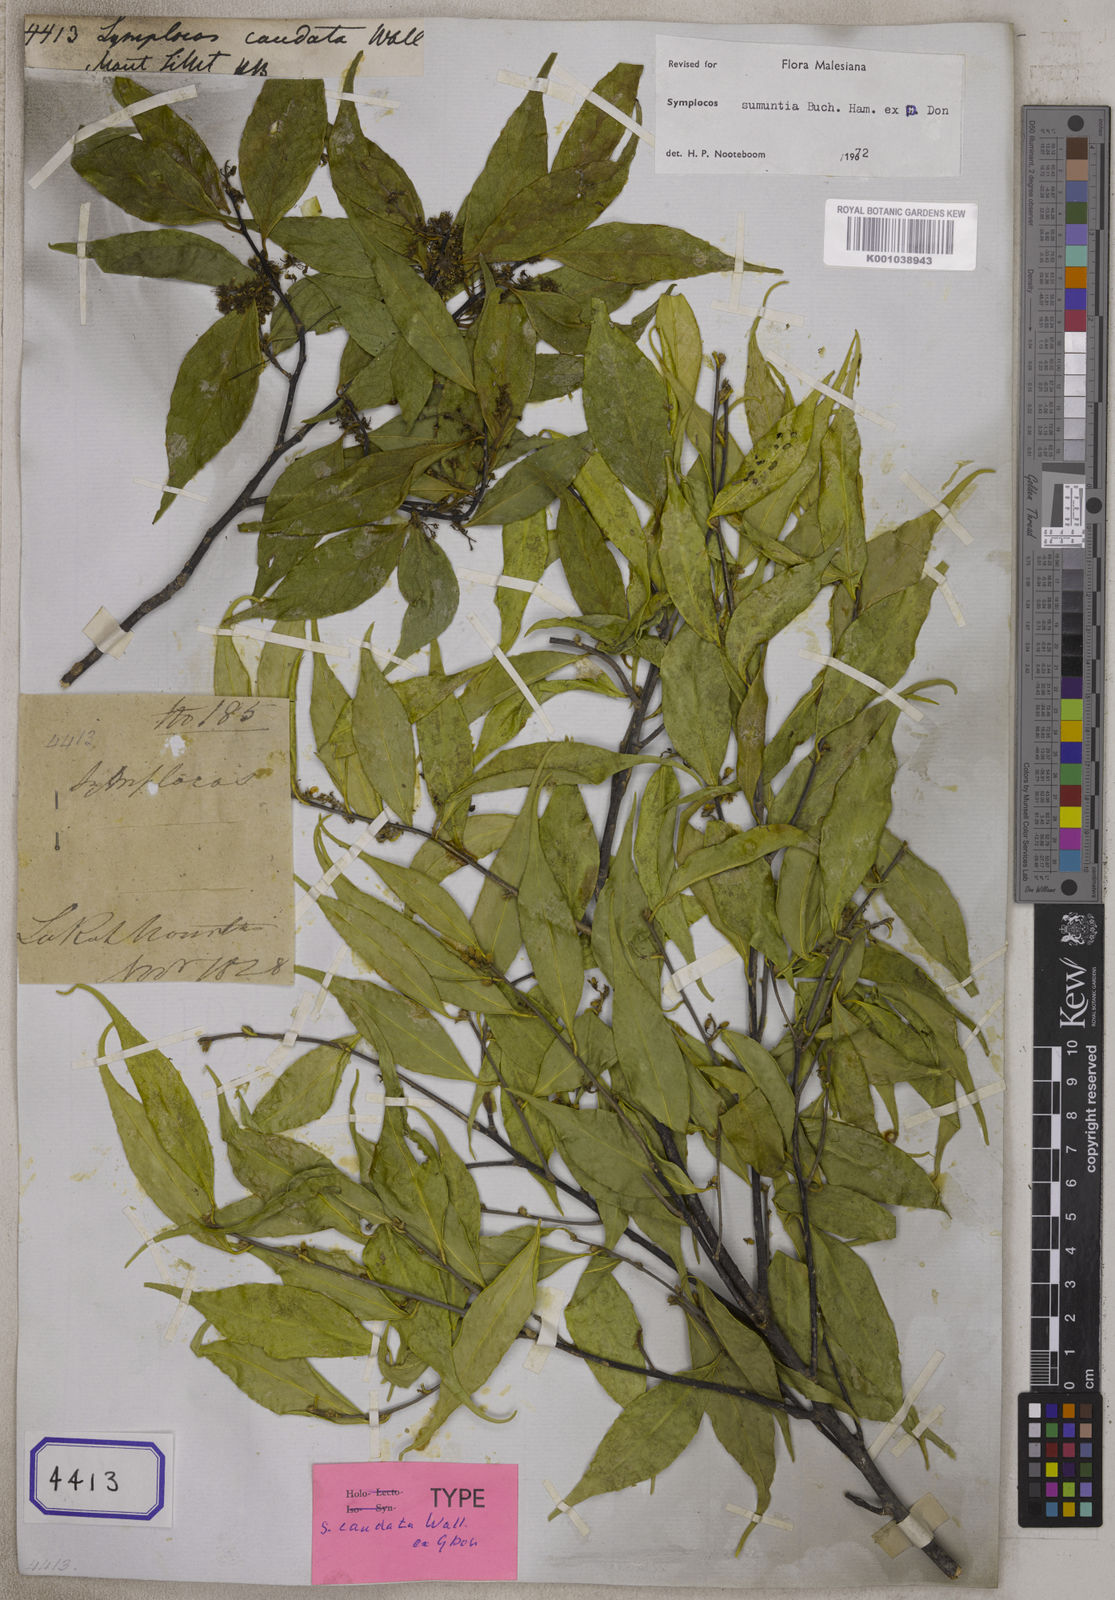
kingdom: Plantae
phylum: Tracheophyta
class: Magnoliopsida
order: Ericales
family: Symplocaceae
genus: Symplocos
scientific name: Symplocos
